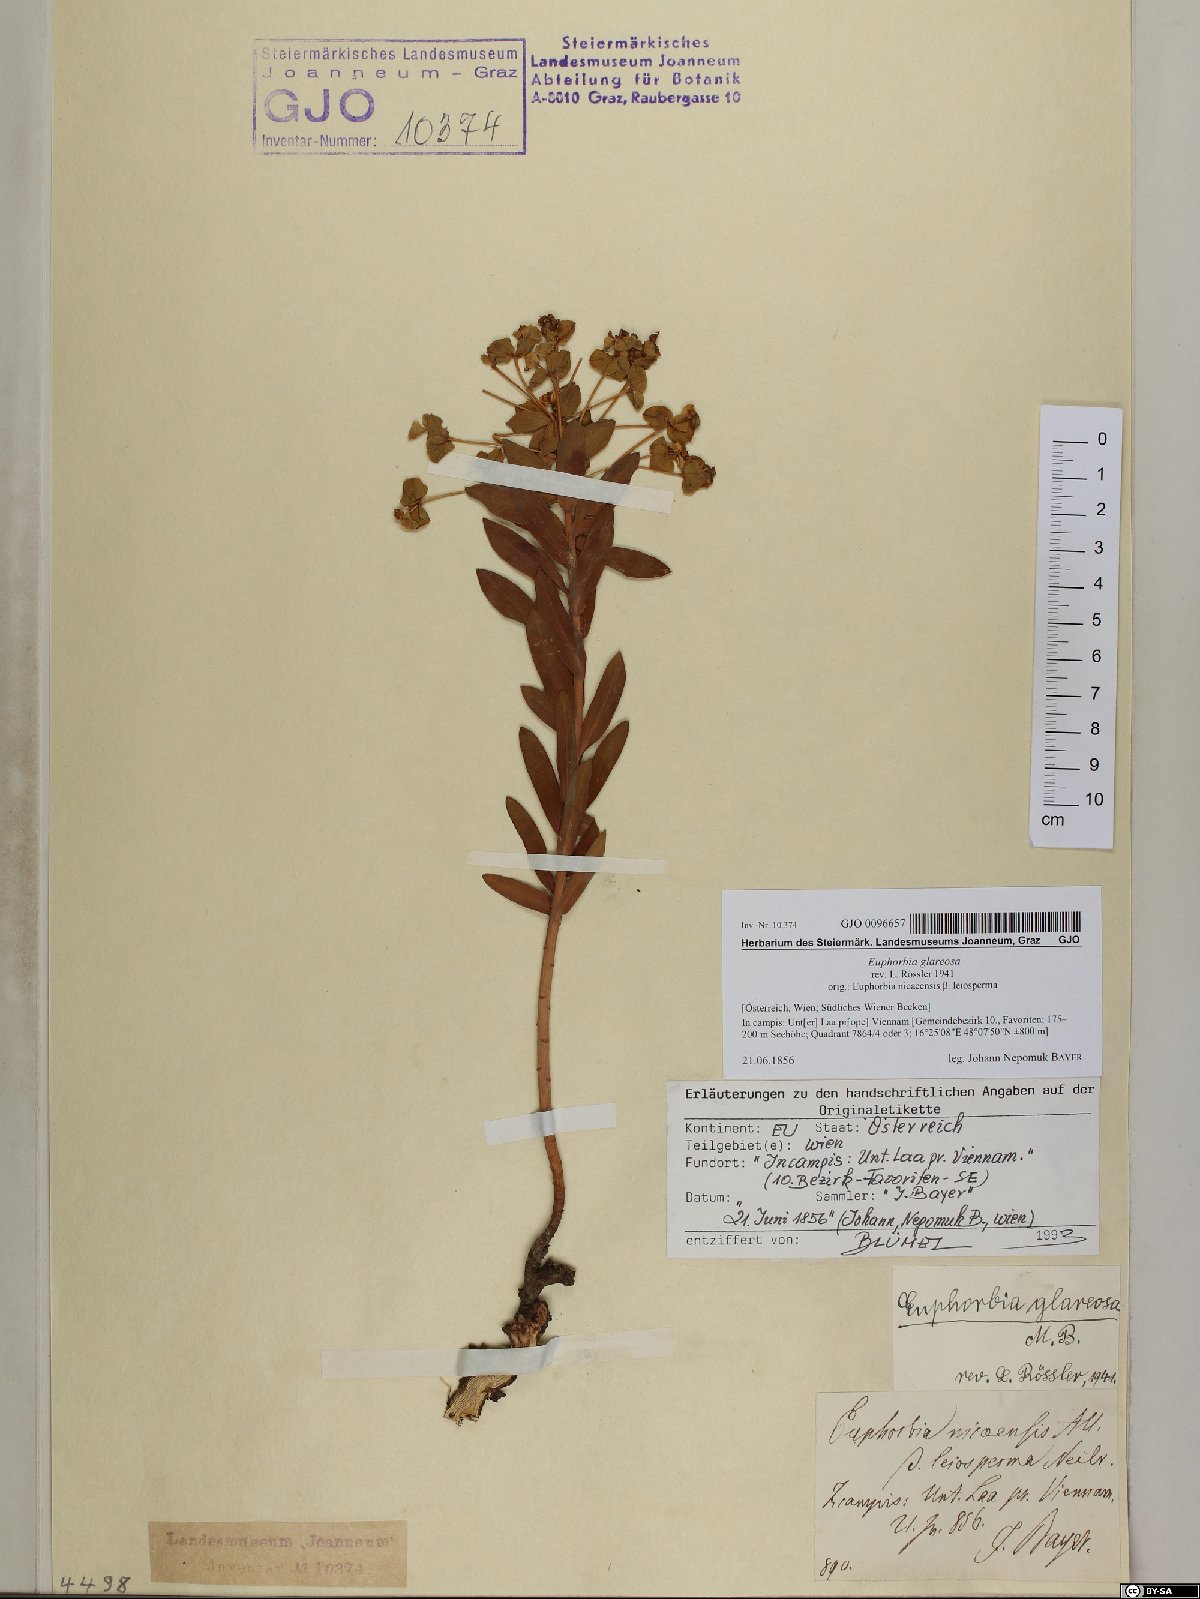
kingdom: Plantae
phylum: Tracheophyta
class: Magnoliopsida
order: Malpighiales
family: Euphorbiaceae
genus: Euphorbia
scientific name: Euphorbia glareosa
